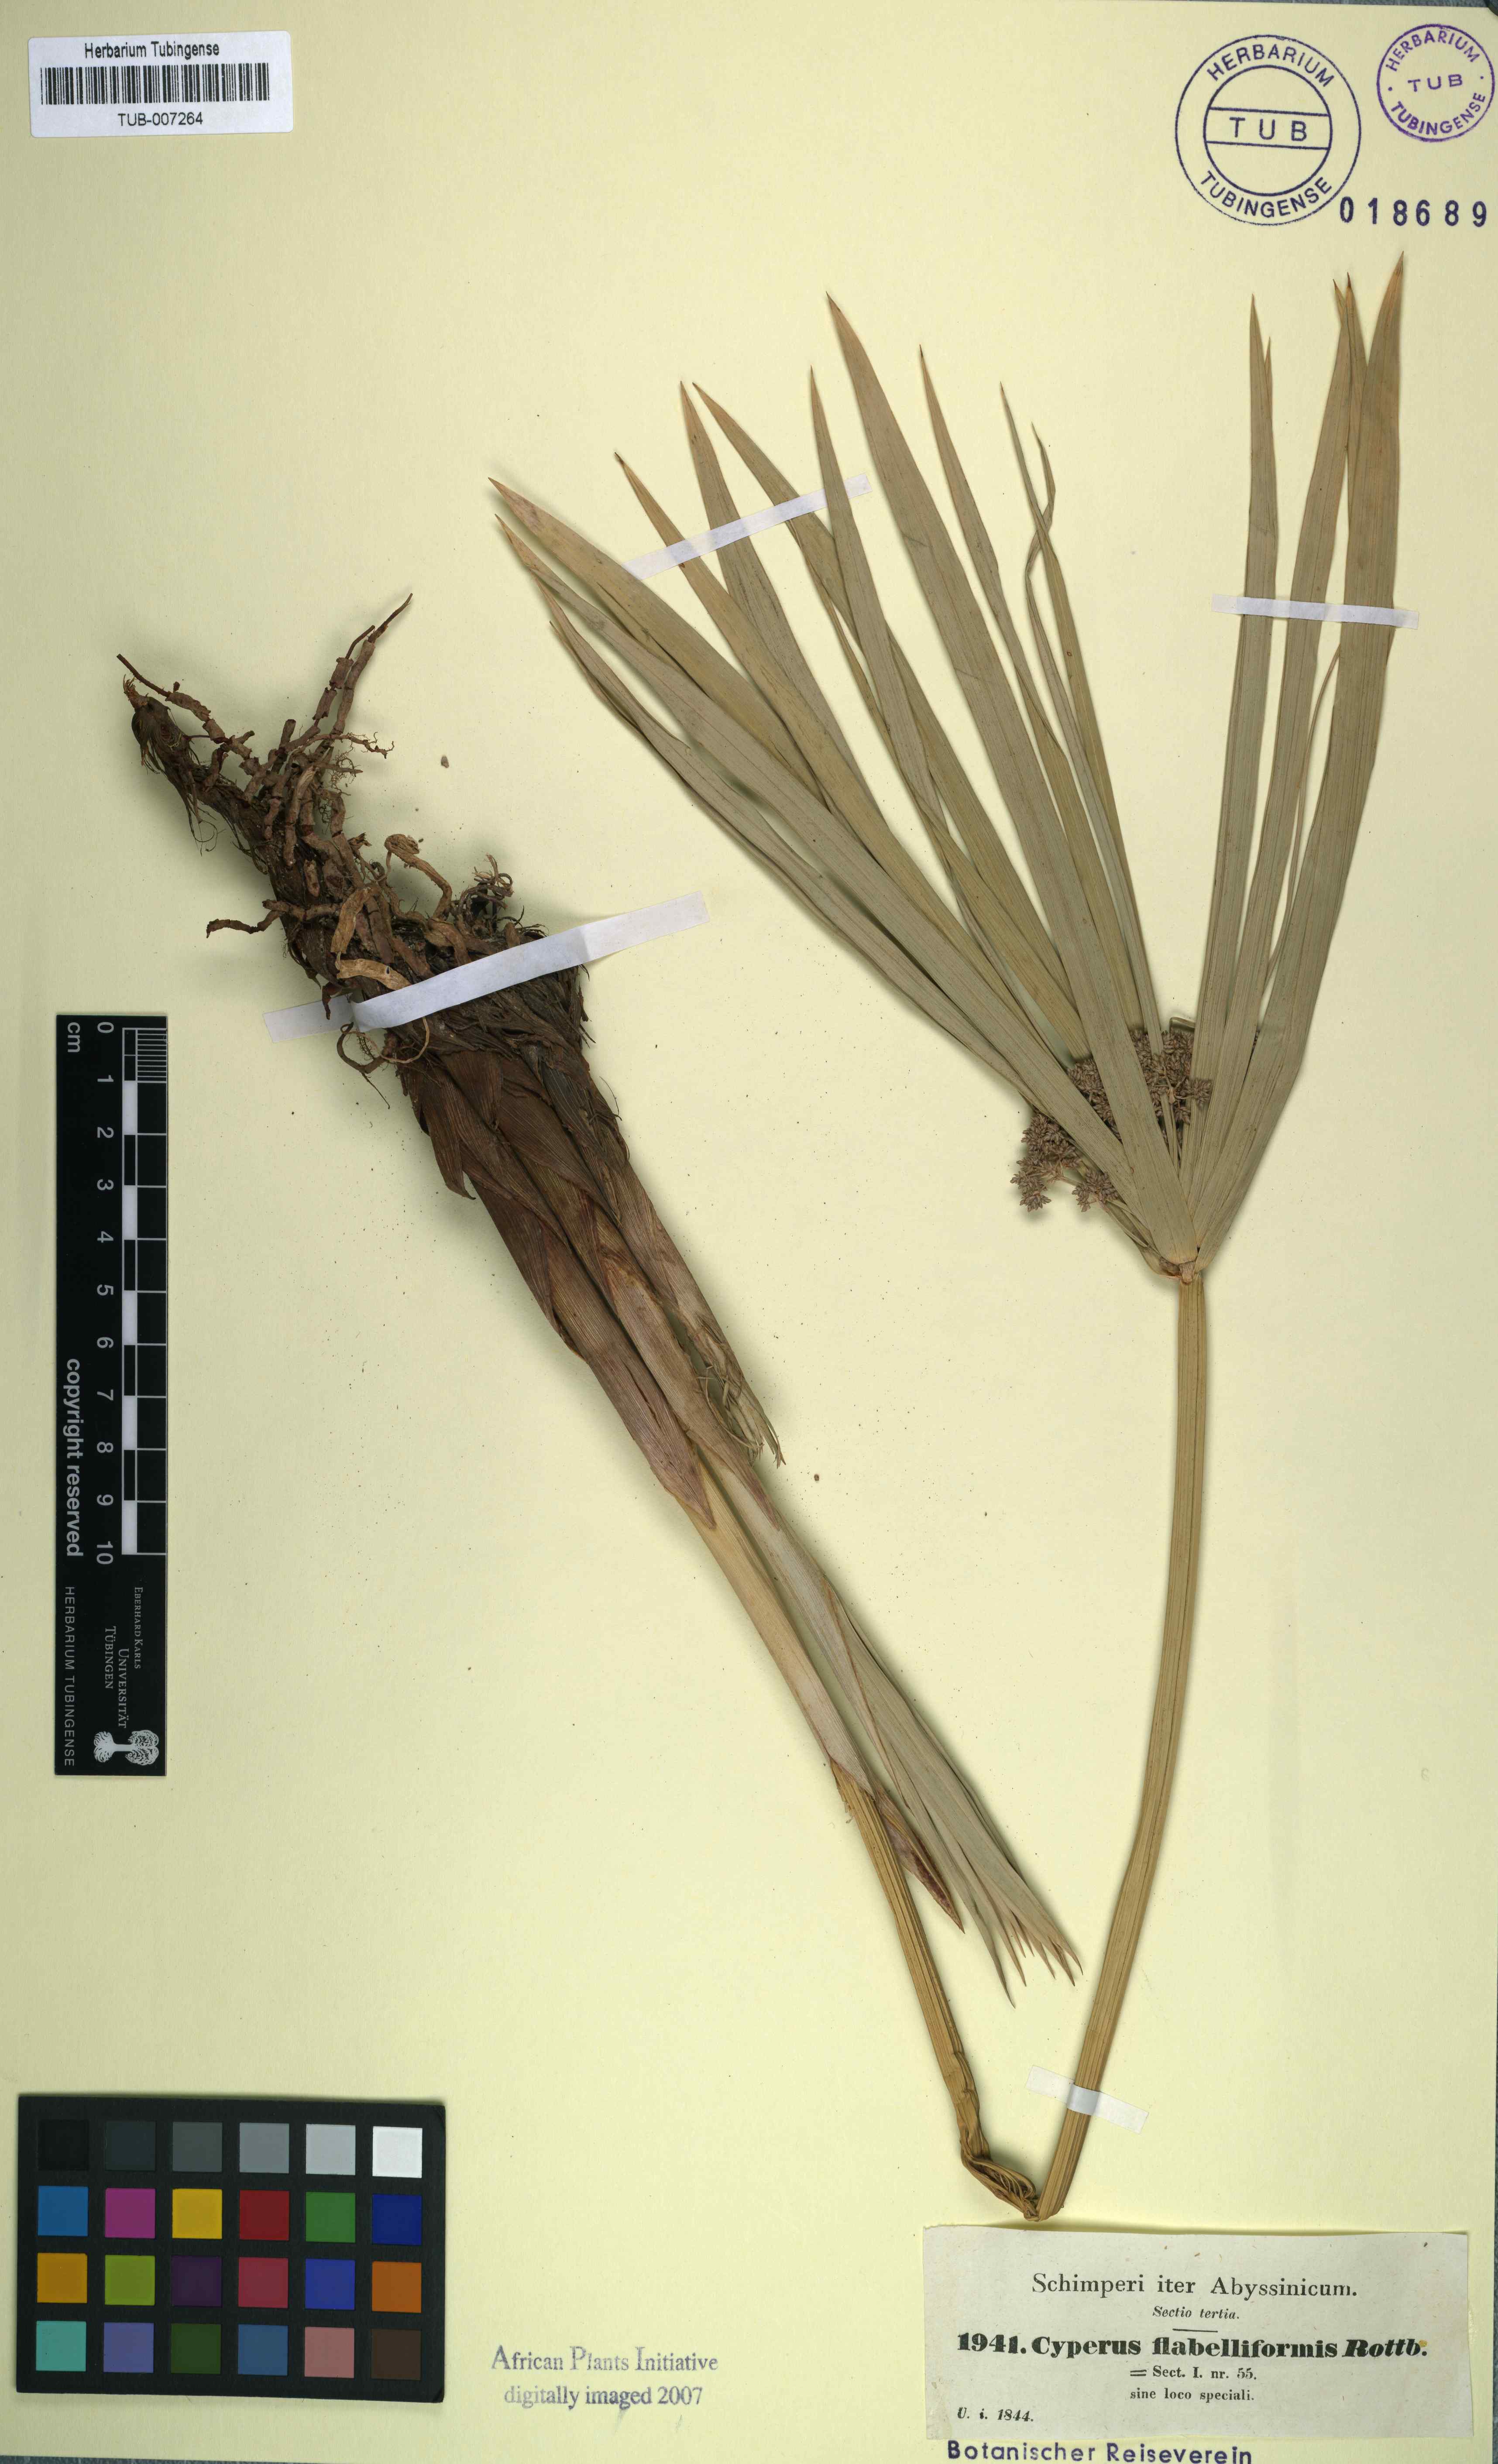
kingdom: Plantae
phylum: Tracheophyta
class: Liliopsida
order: Poales
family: Cyperaceae
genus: Cyperus
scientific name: Cyperus alternifolius
